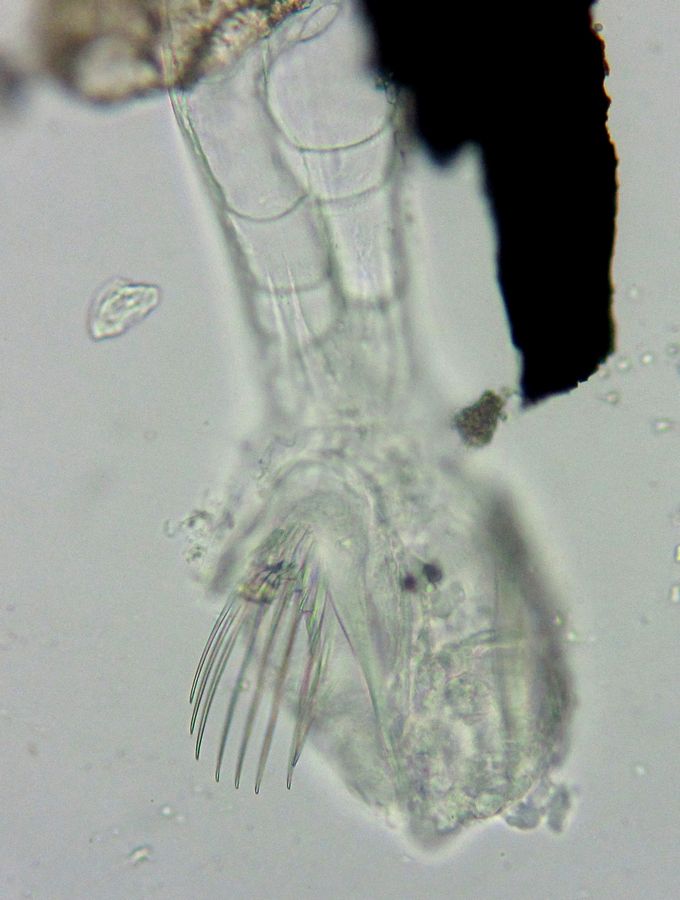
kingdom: Animalia
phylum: Chaetognatha
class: Sagittoidea
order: Aphragmophora
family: Sagittidae
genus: Parasagitta
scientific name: Parasagitta elegans
